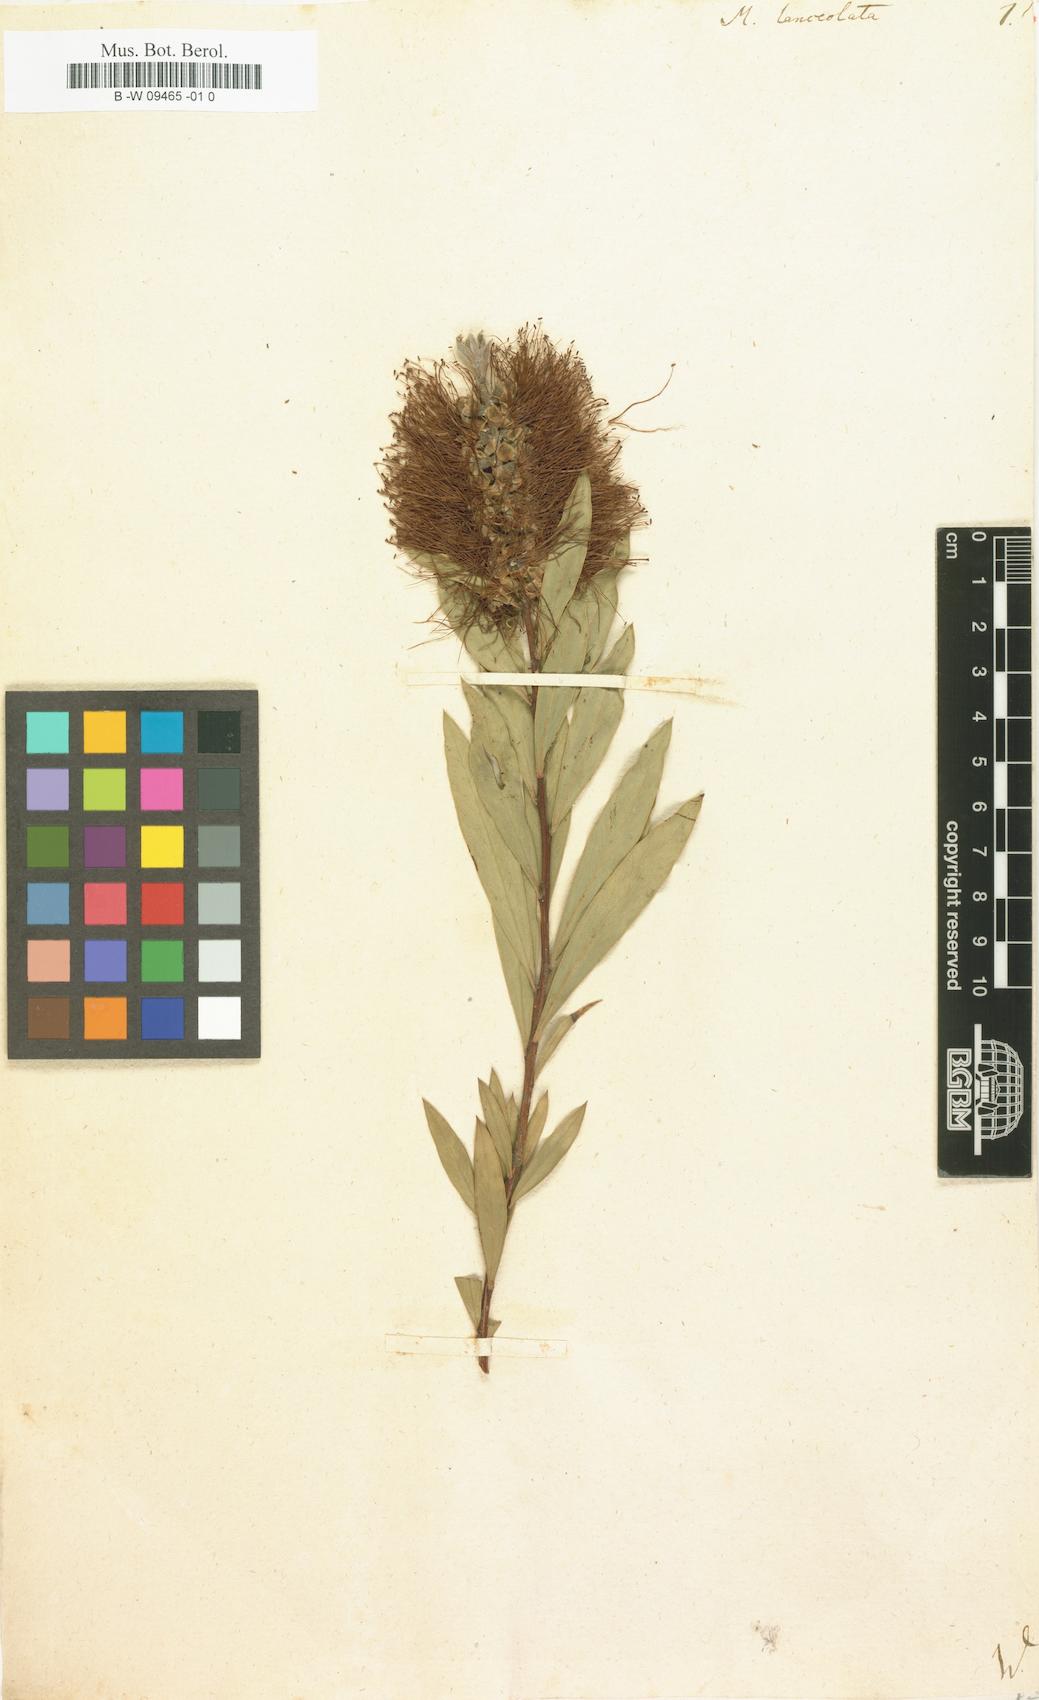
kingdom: Plantae
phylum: Tracheophyta
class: Magnoliopsida
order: Myrtales
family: Myrtaceae
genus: Callistemon
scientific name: Callistemon citrinus
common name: Crimson bottlebrush
